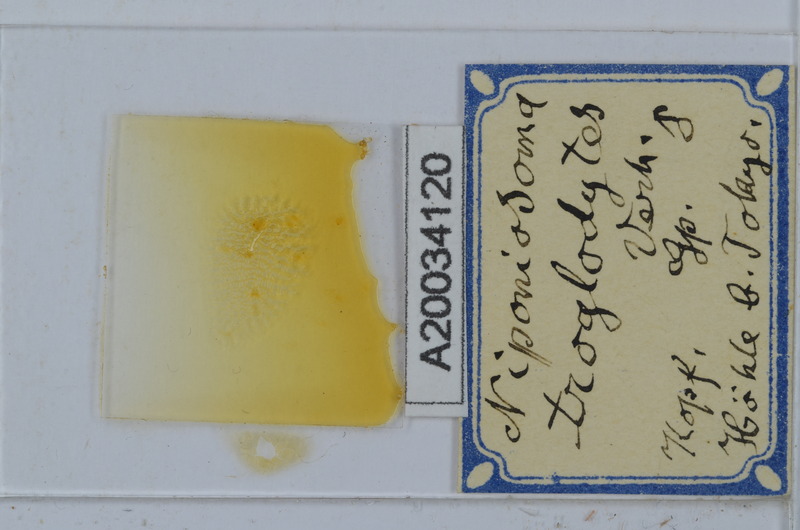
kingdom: Animalia
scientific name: Animalia
